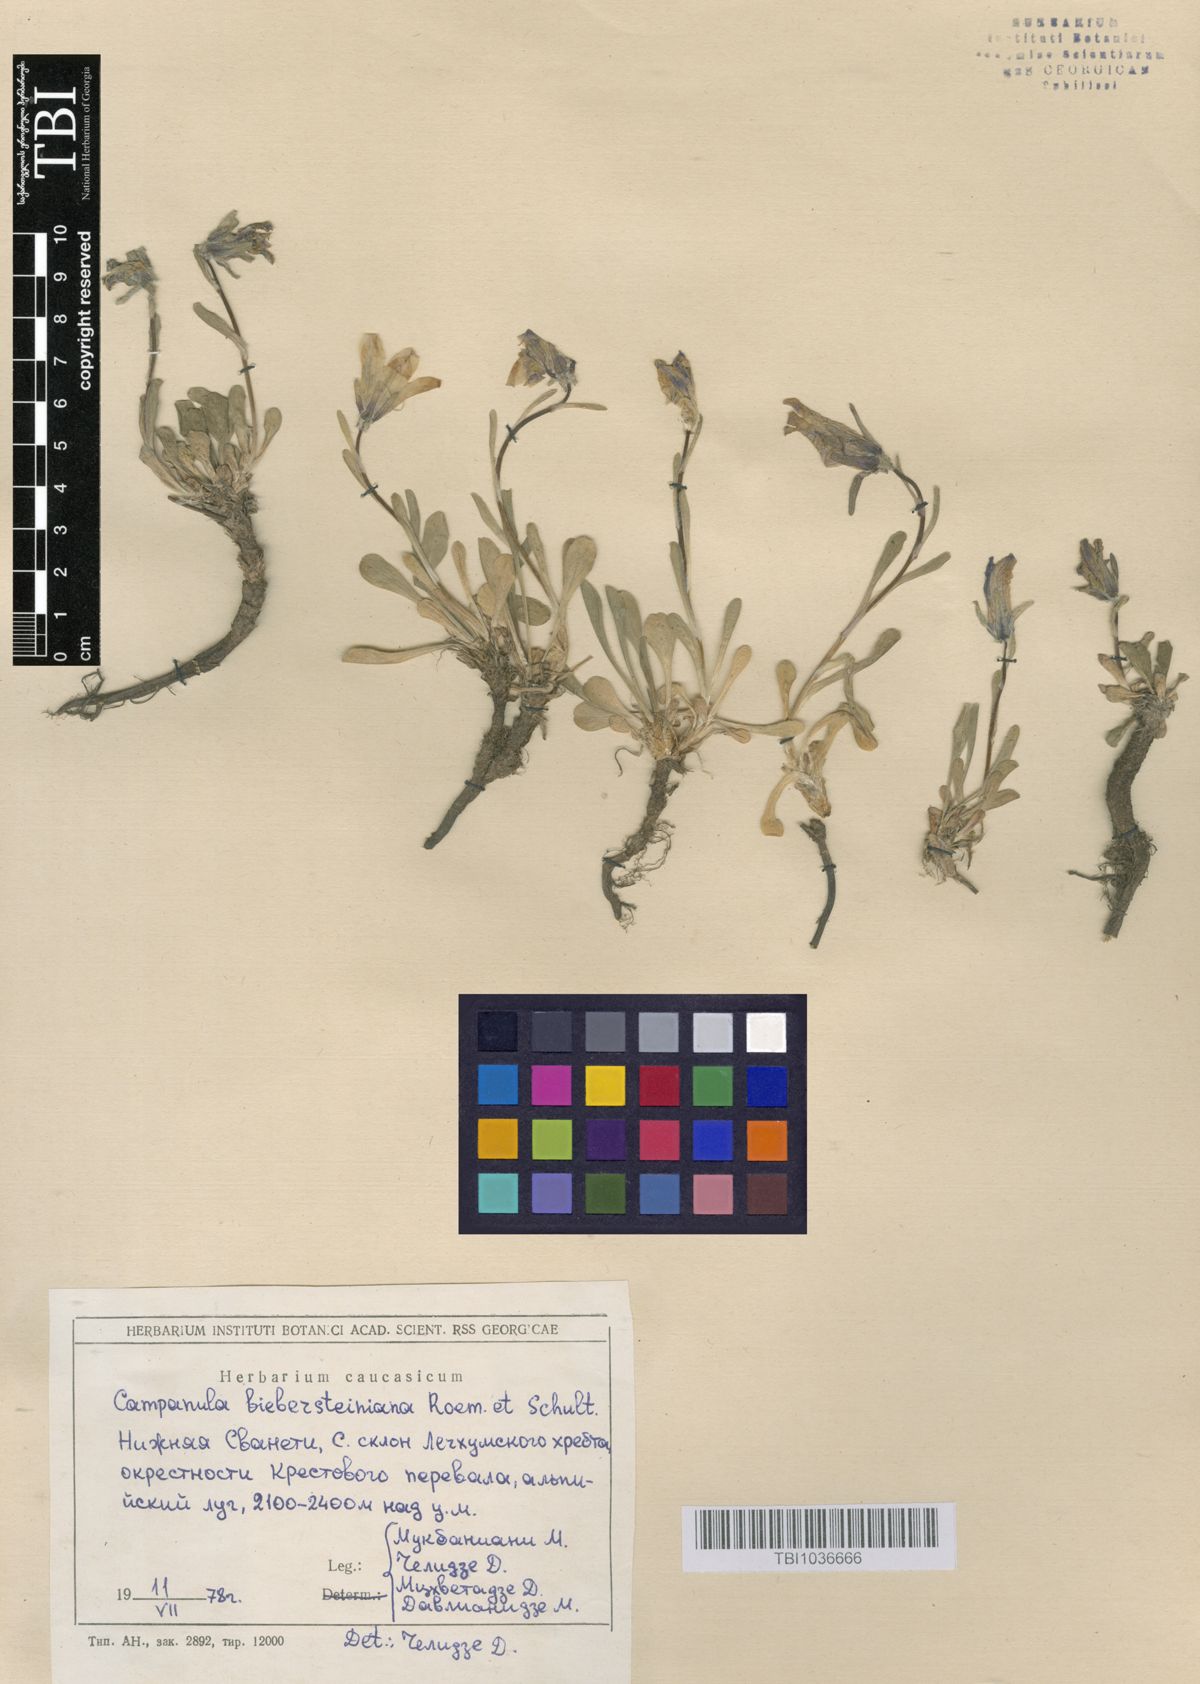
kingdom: Plantae
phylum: Tracheophyta
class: Magnoliopsida
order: Asterales
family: Campanulaceae
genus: Campanula
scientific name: Campanula tridentata
